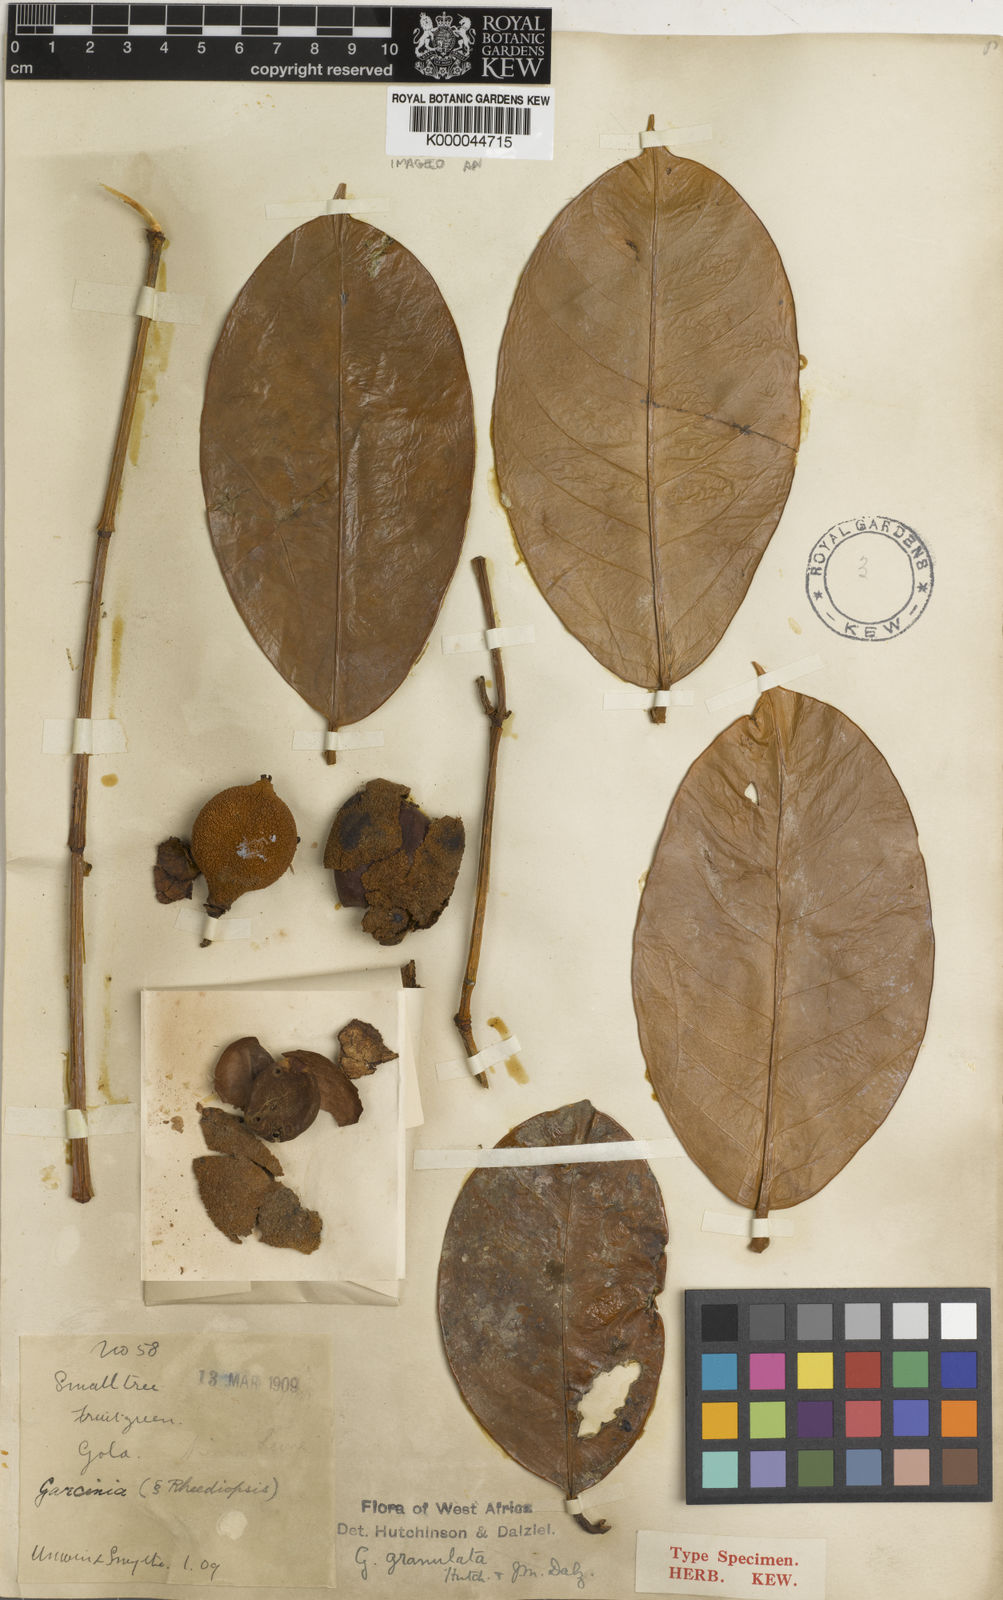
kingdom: Plantae
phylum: Tracheophyta
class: Magnoliopsida
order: Malpighiales
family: Clusiaceae
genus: Garcinia
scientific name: Garcinia quadrifaria
